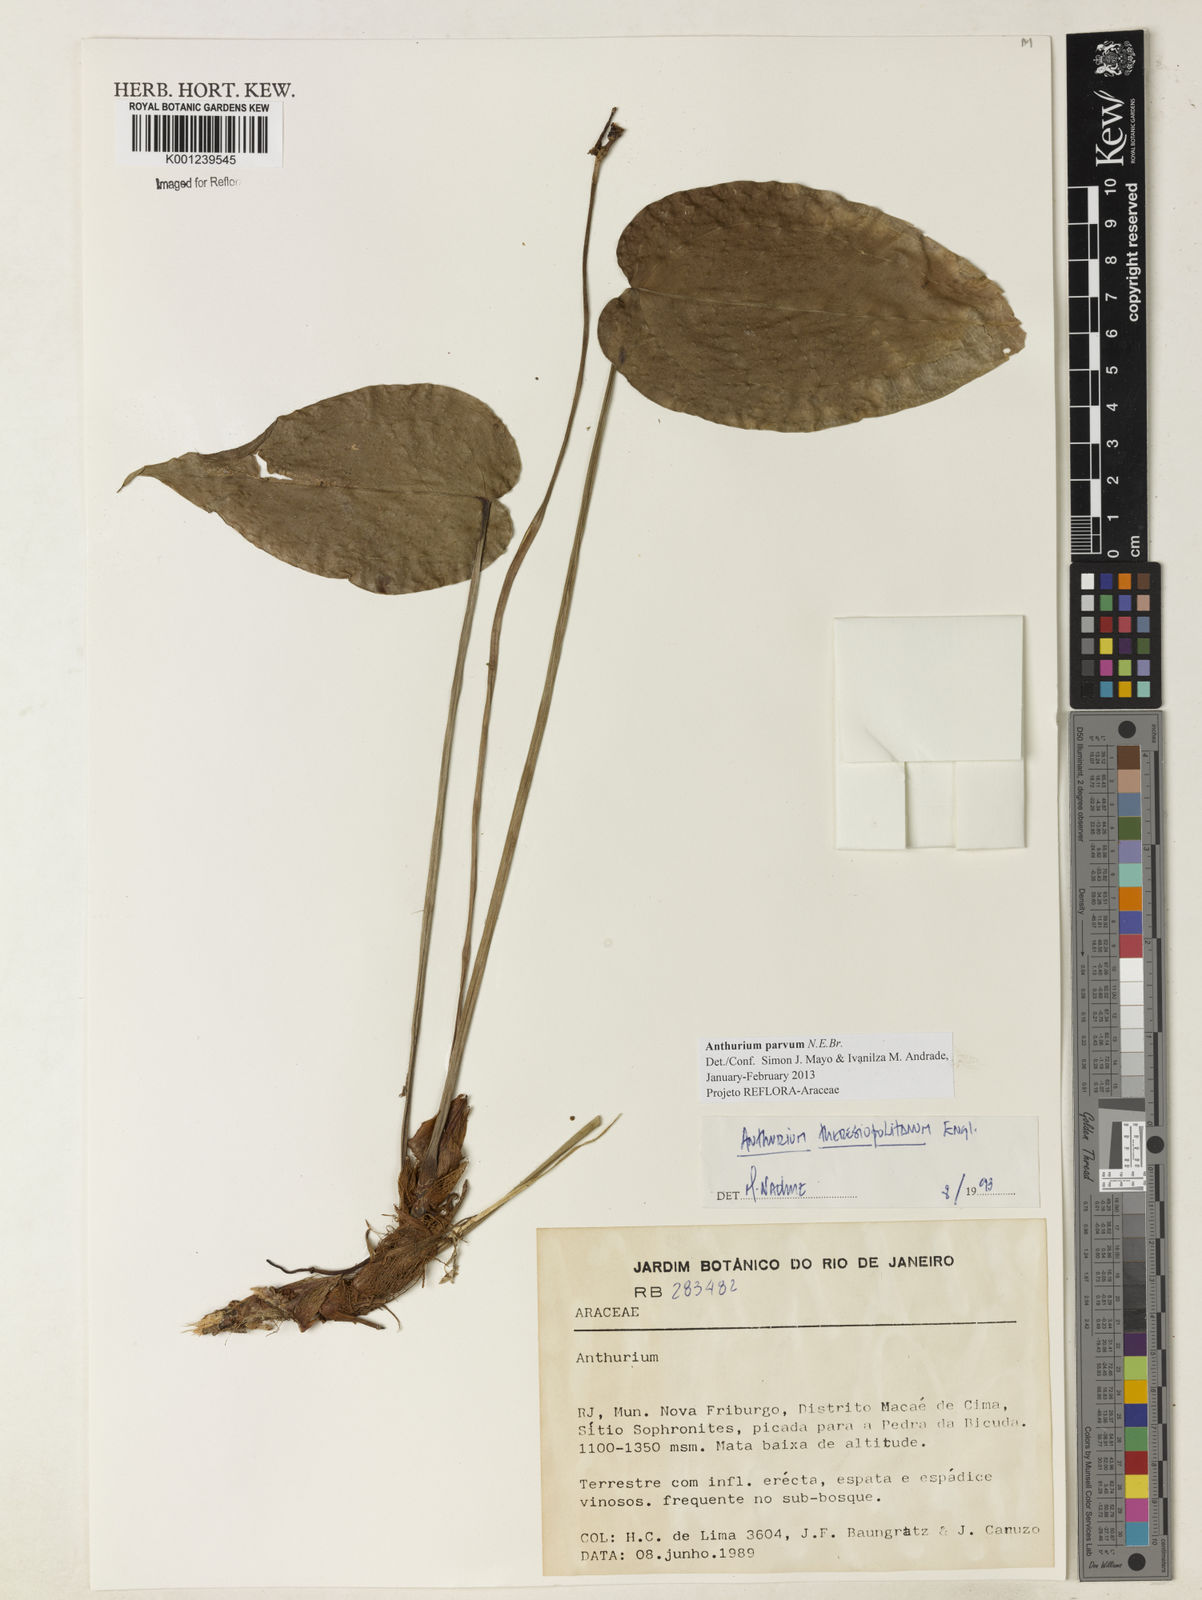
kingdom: Plantae
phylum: Tracheophyta
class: Liliopsida
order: Alismatales
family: Araceae
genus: Anthurium
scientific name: Anthurium parvum
